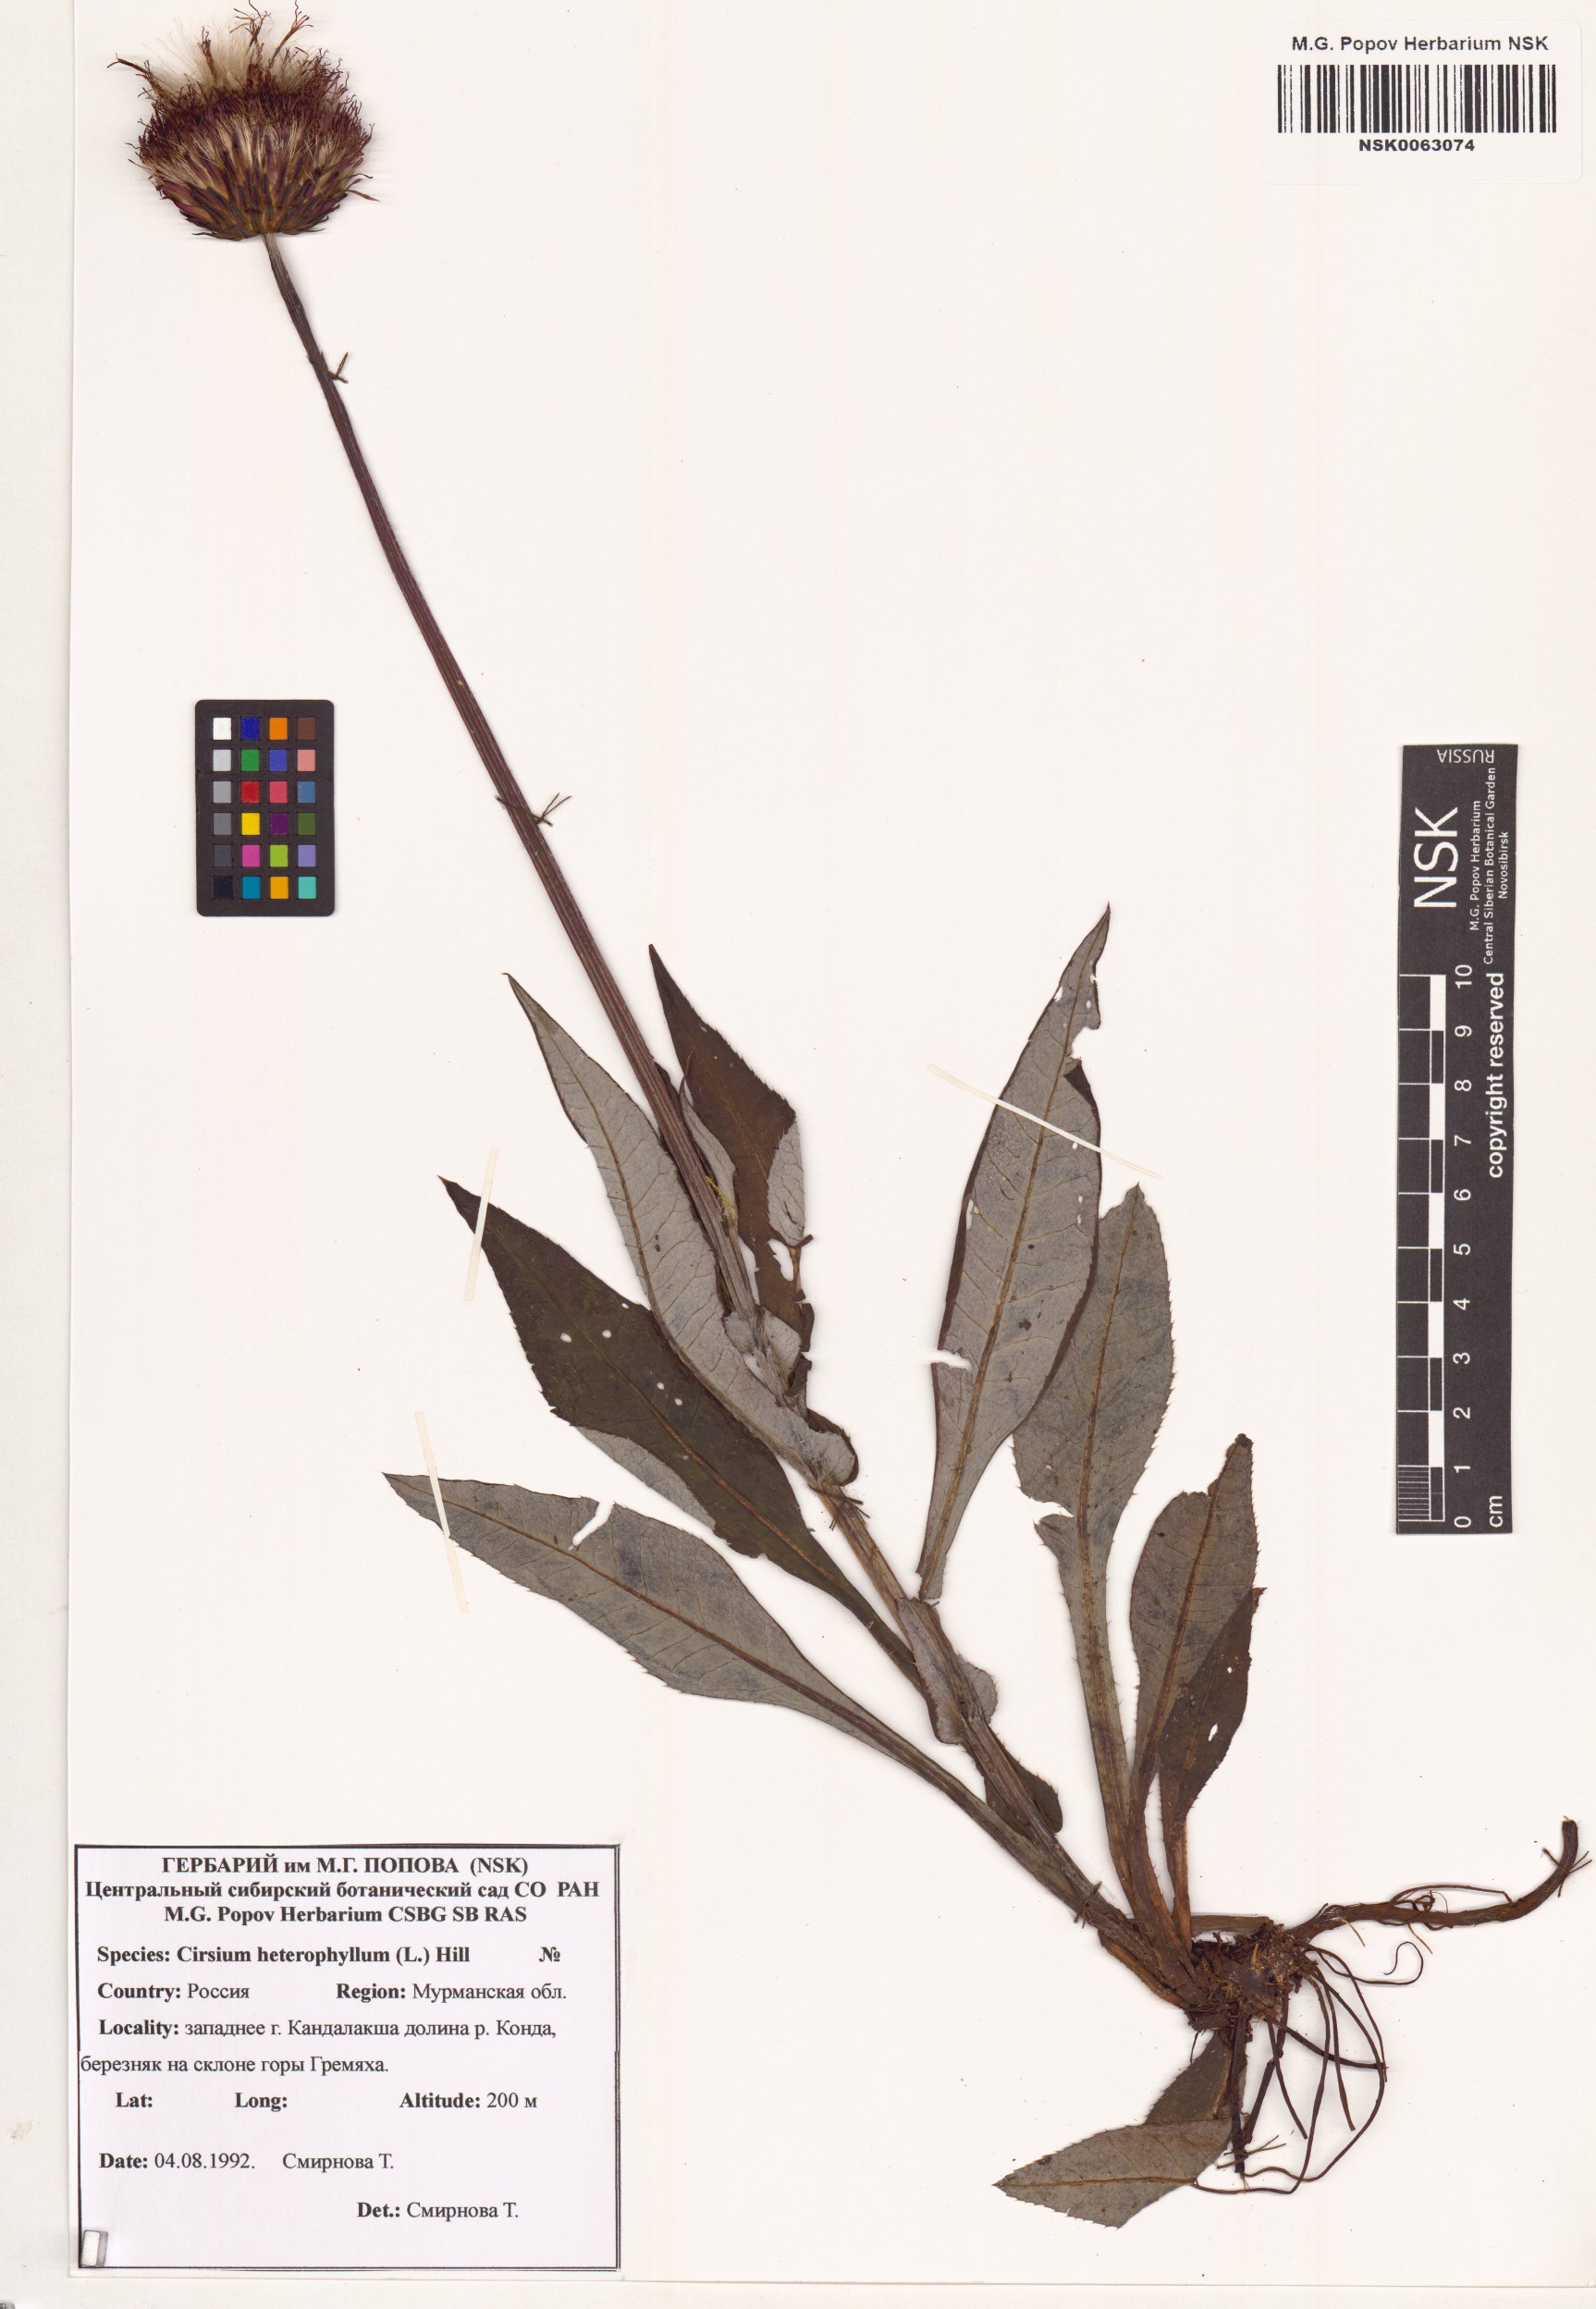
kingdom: Plantae
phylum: Tracheophyta
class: Magnoliopsida
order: Asterales
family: Asteraceae
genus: Cirsium
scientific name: Cirsium heterophyllum
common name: Melancholy thistle
